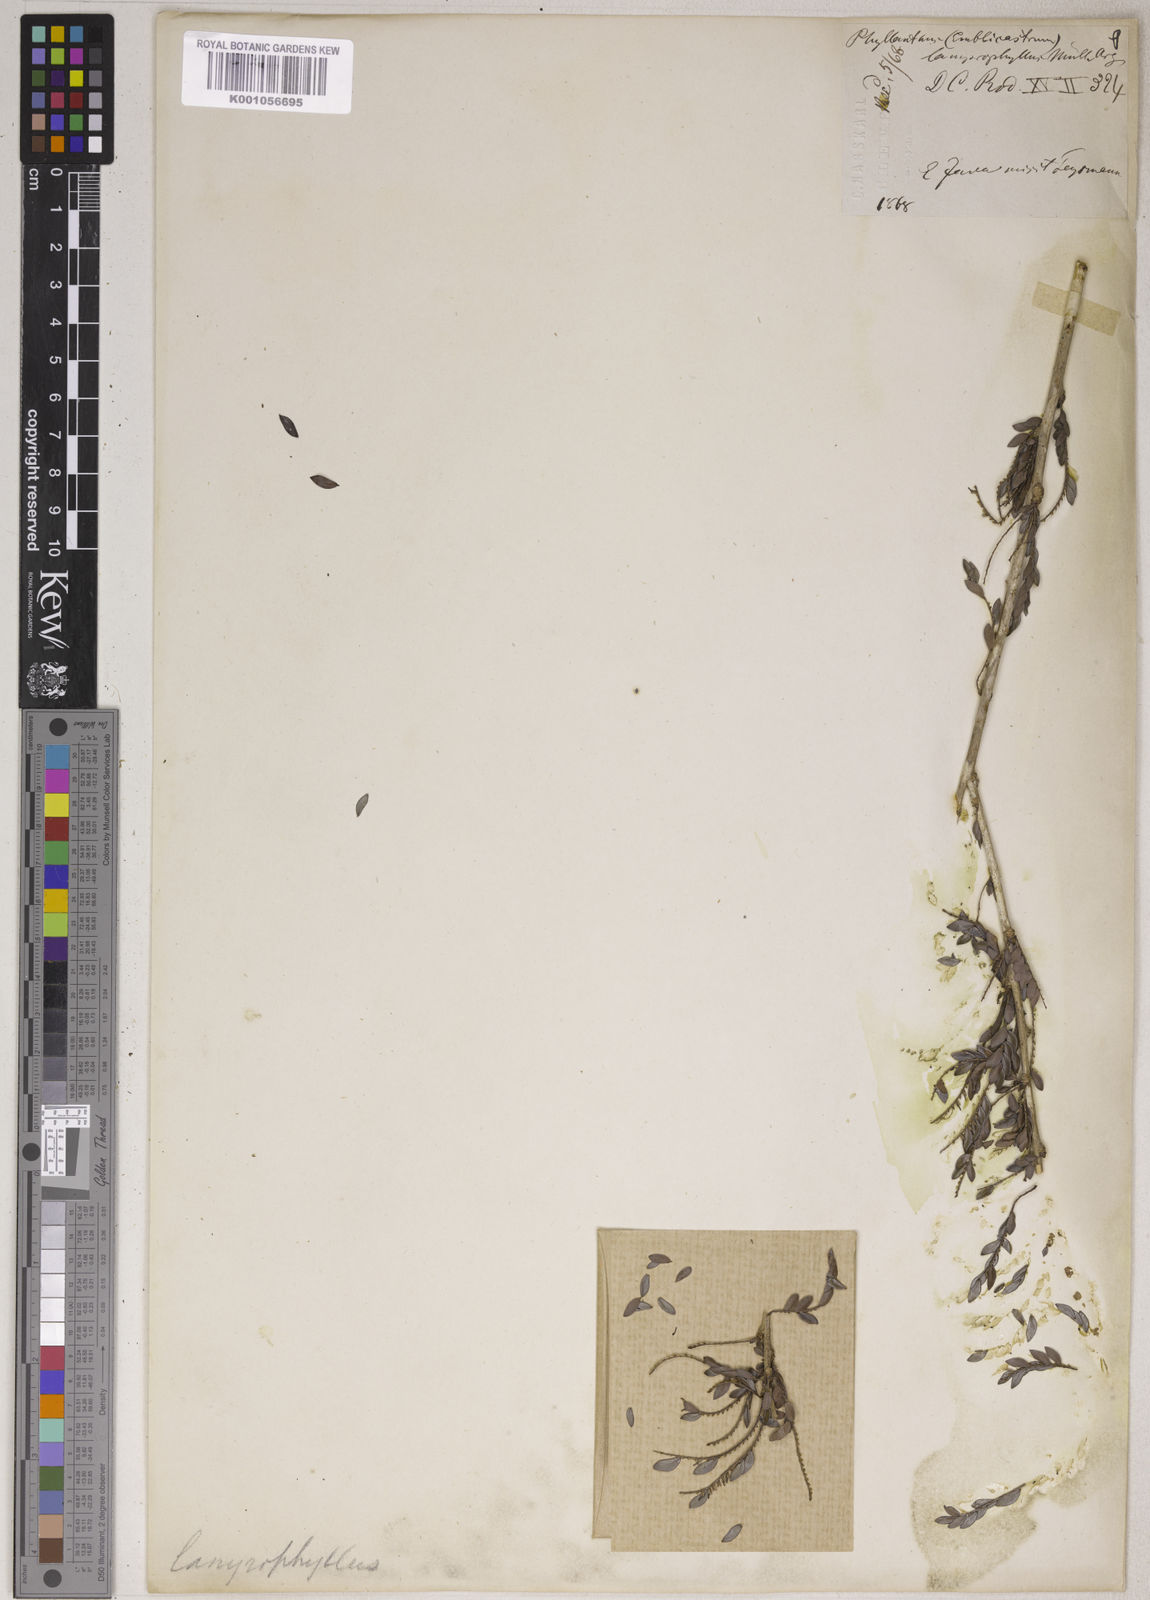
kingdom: Plantae
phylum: Tracheophyta
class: Magnoliopsida
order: Malpighiales
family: Phyllanthaceae
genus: Phyllanthus
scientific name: Phyllanthus
